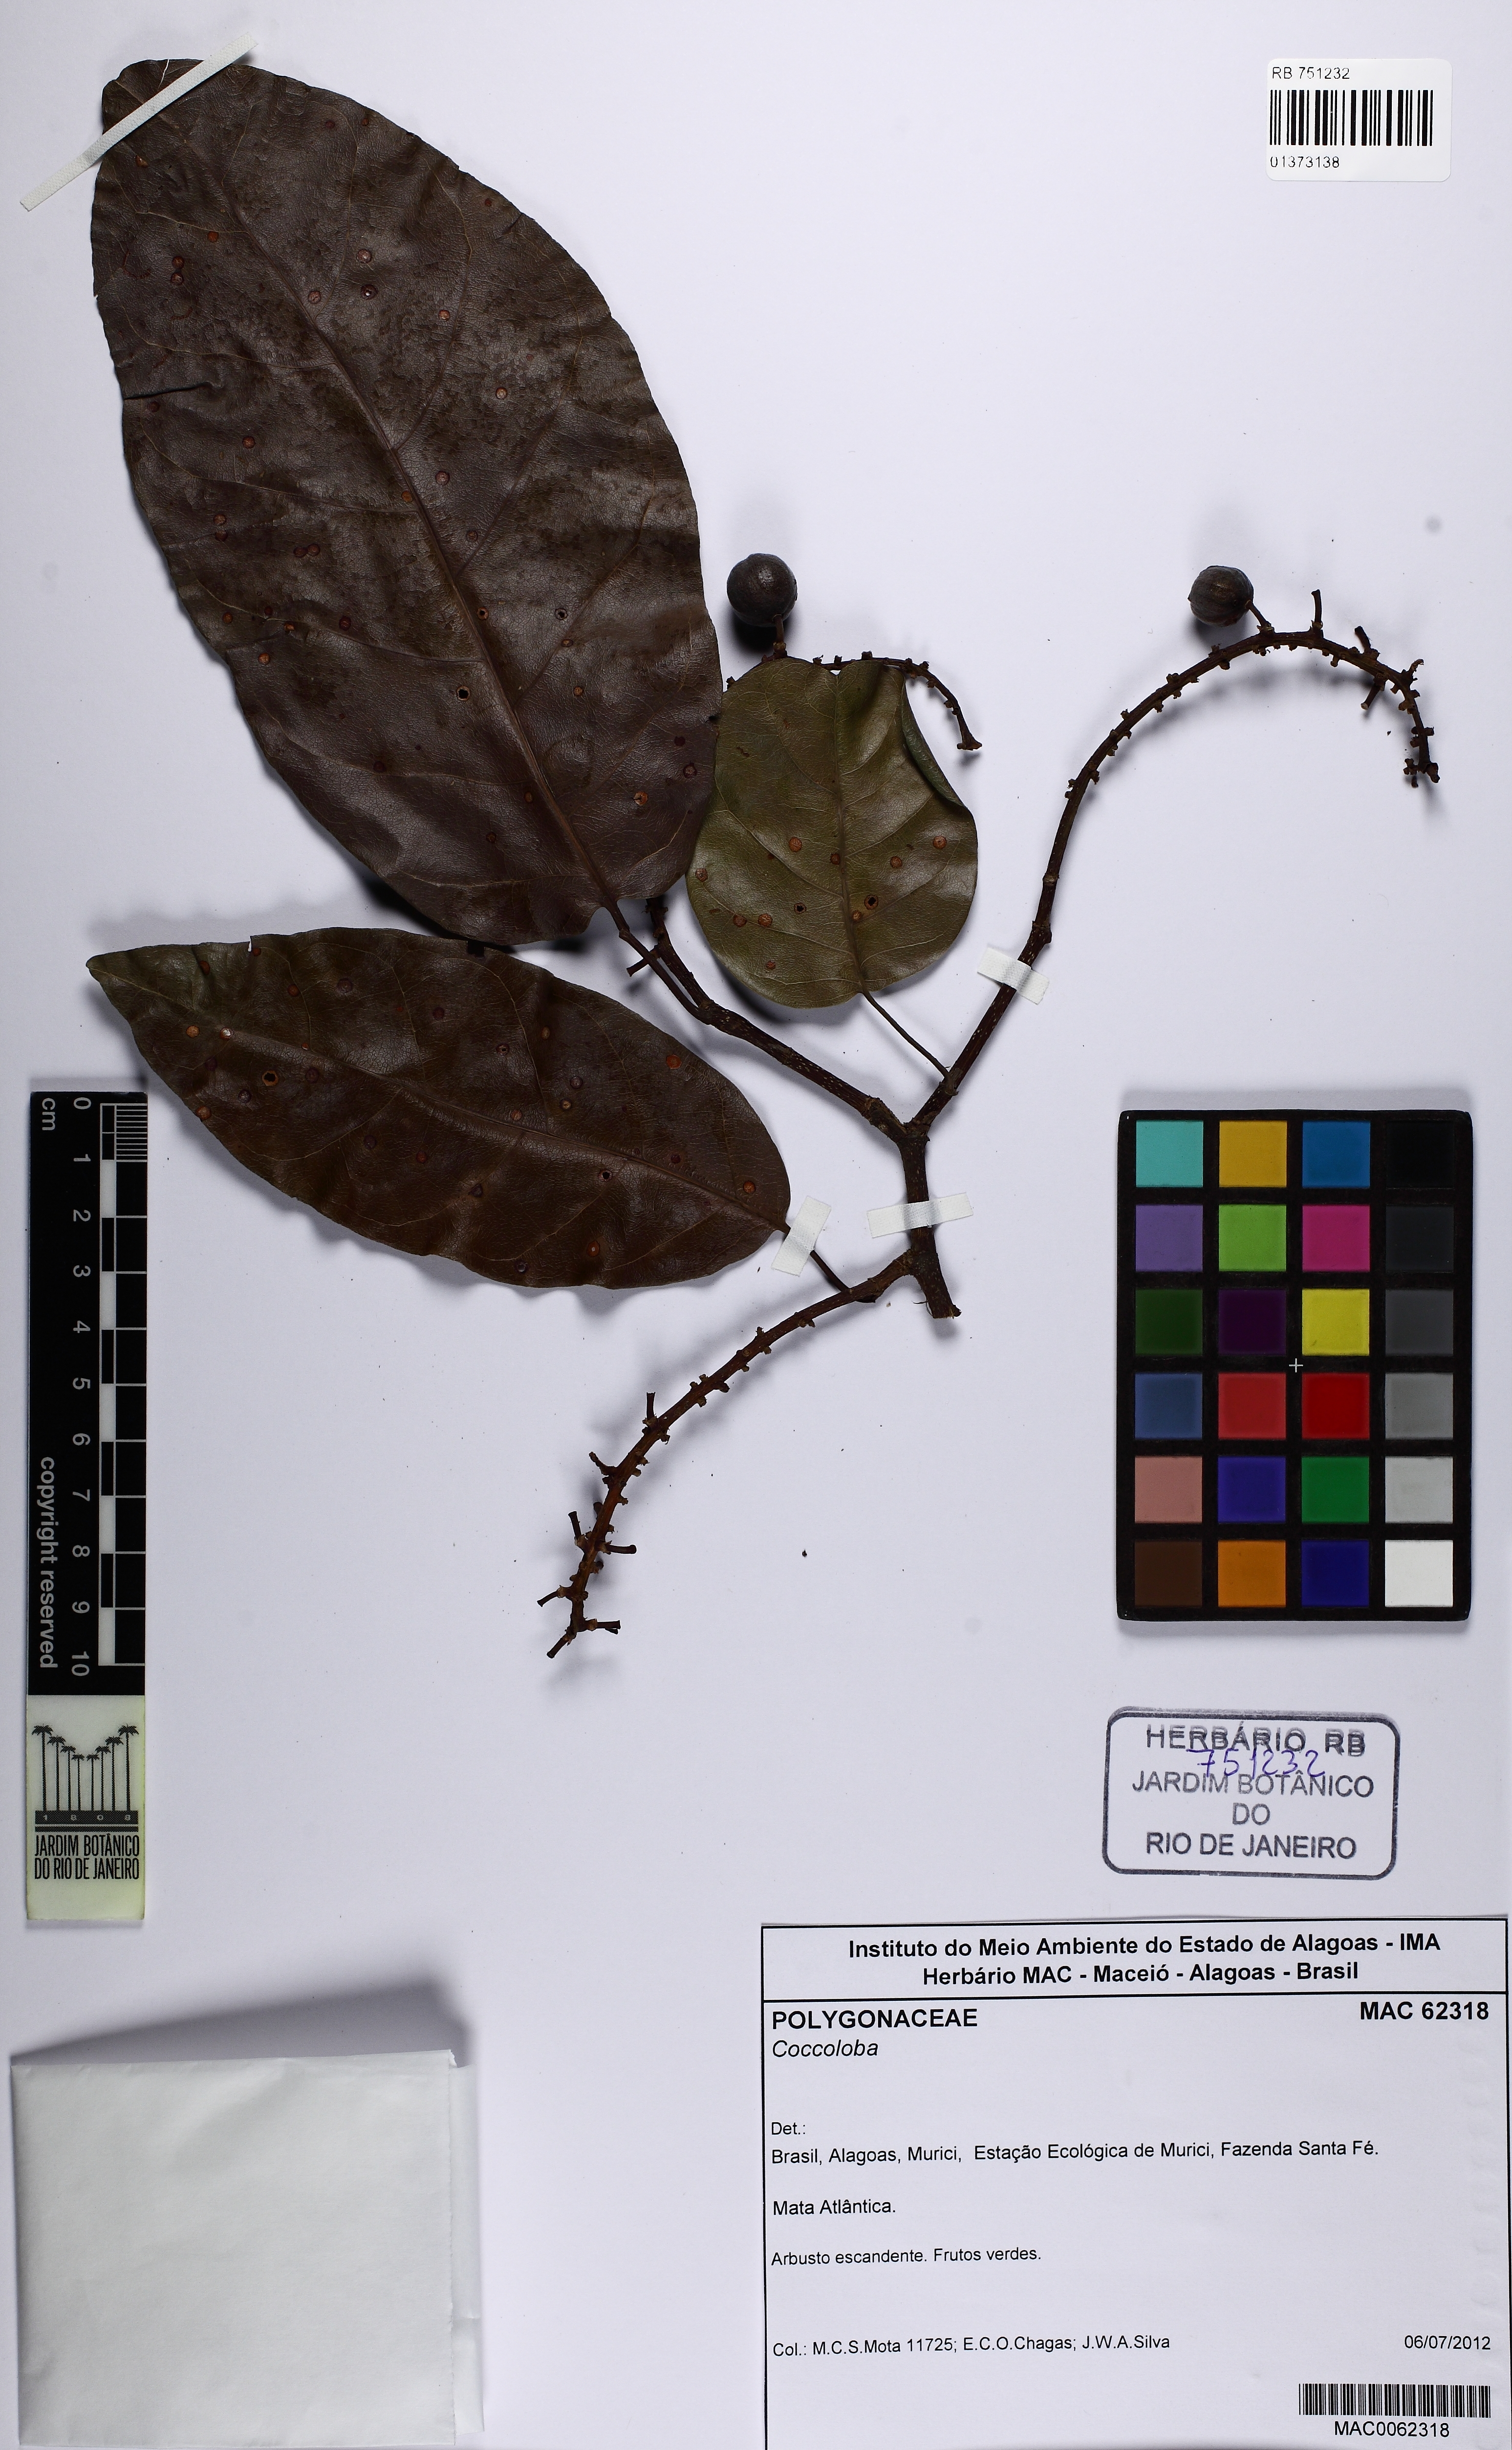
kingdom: Plantae
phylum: Tracheophyta
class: Magnoliopsida
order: Caryophyllales
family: Polygonaceae
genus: Coccoloba
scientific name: Coccoloba
